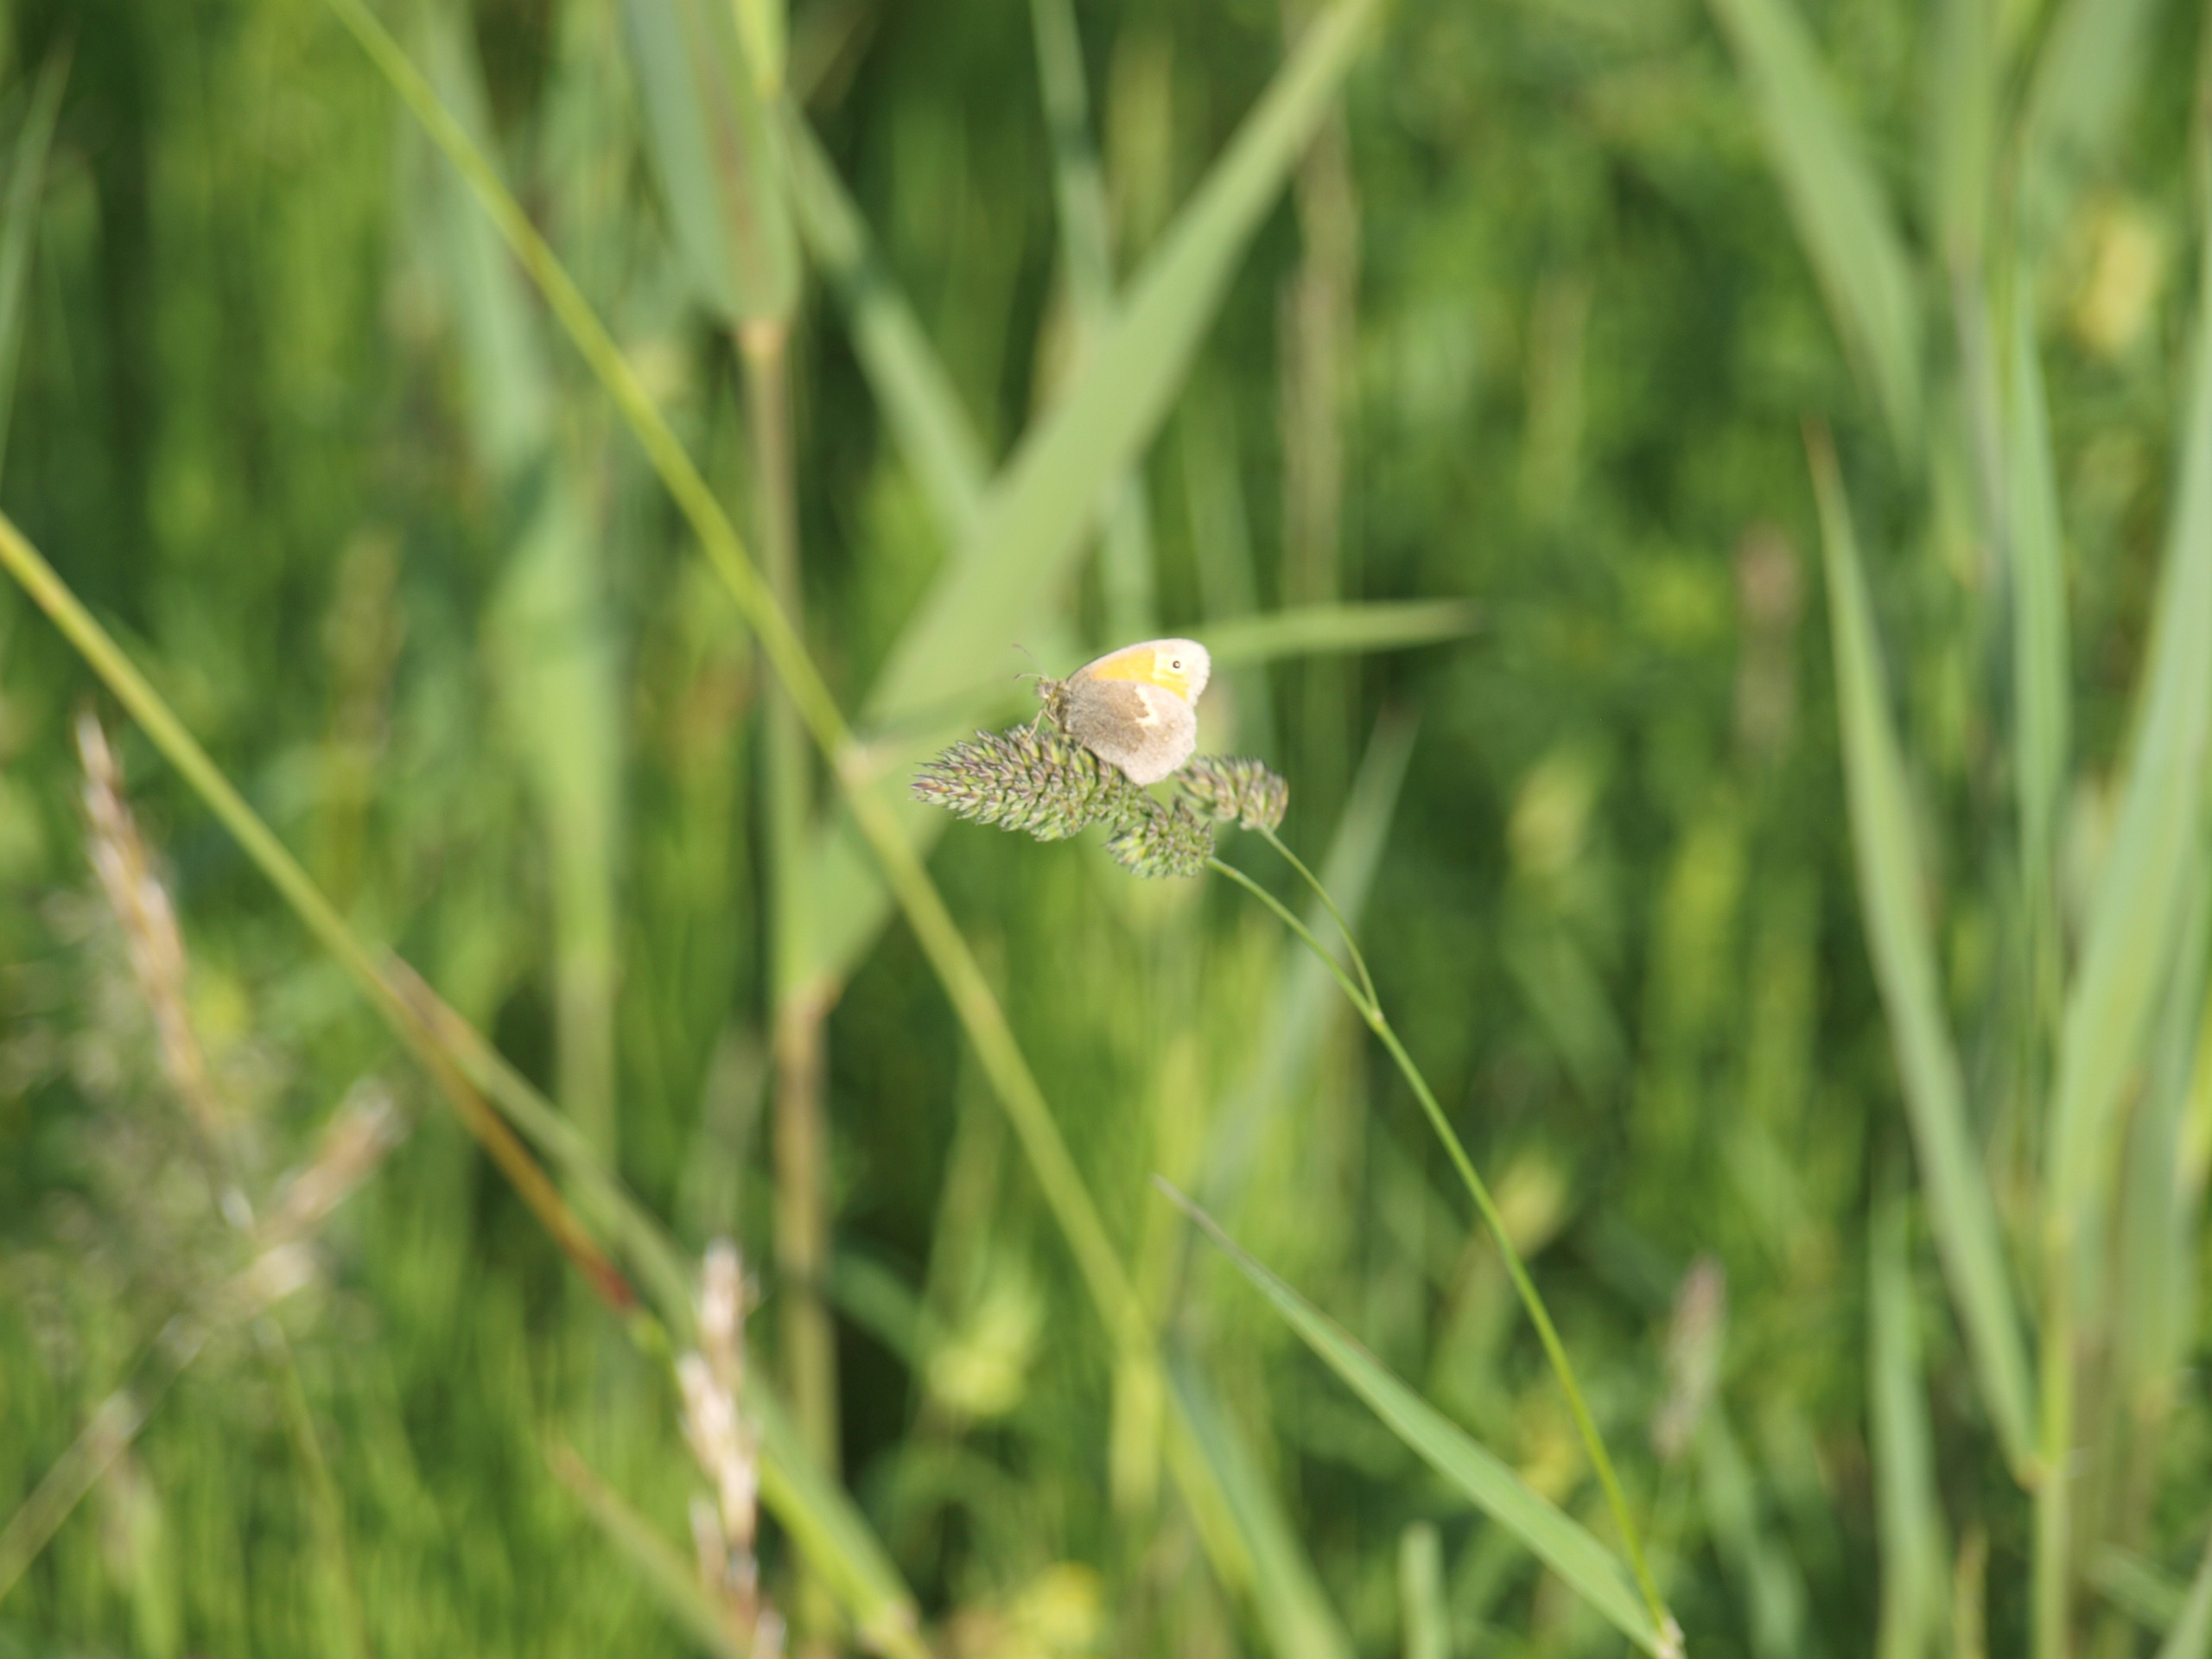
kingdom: Animalia
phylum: Arthropoda
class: Insecta
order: Lepidoptera
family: Nymphalidae
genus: Coenonympha
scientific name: Coenonympha pamphilus
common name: Okkergul randøje
